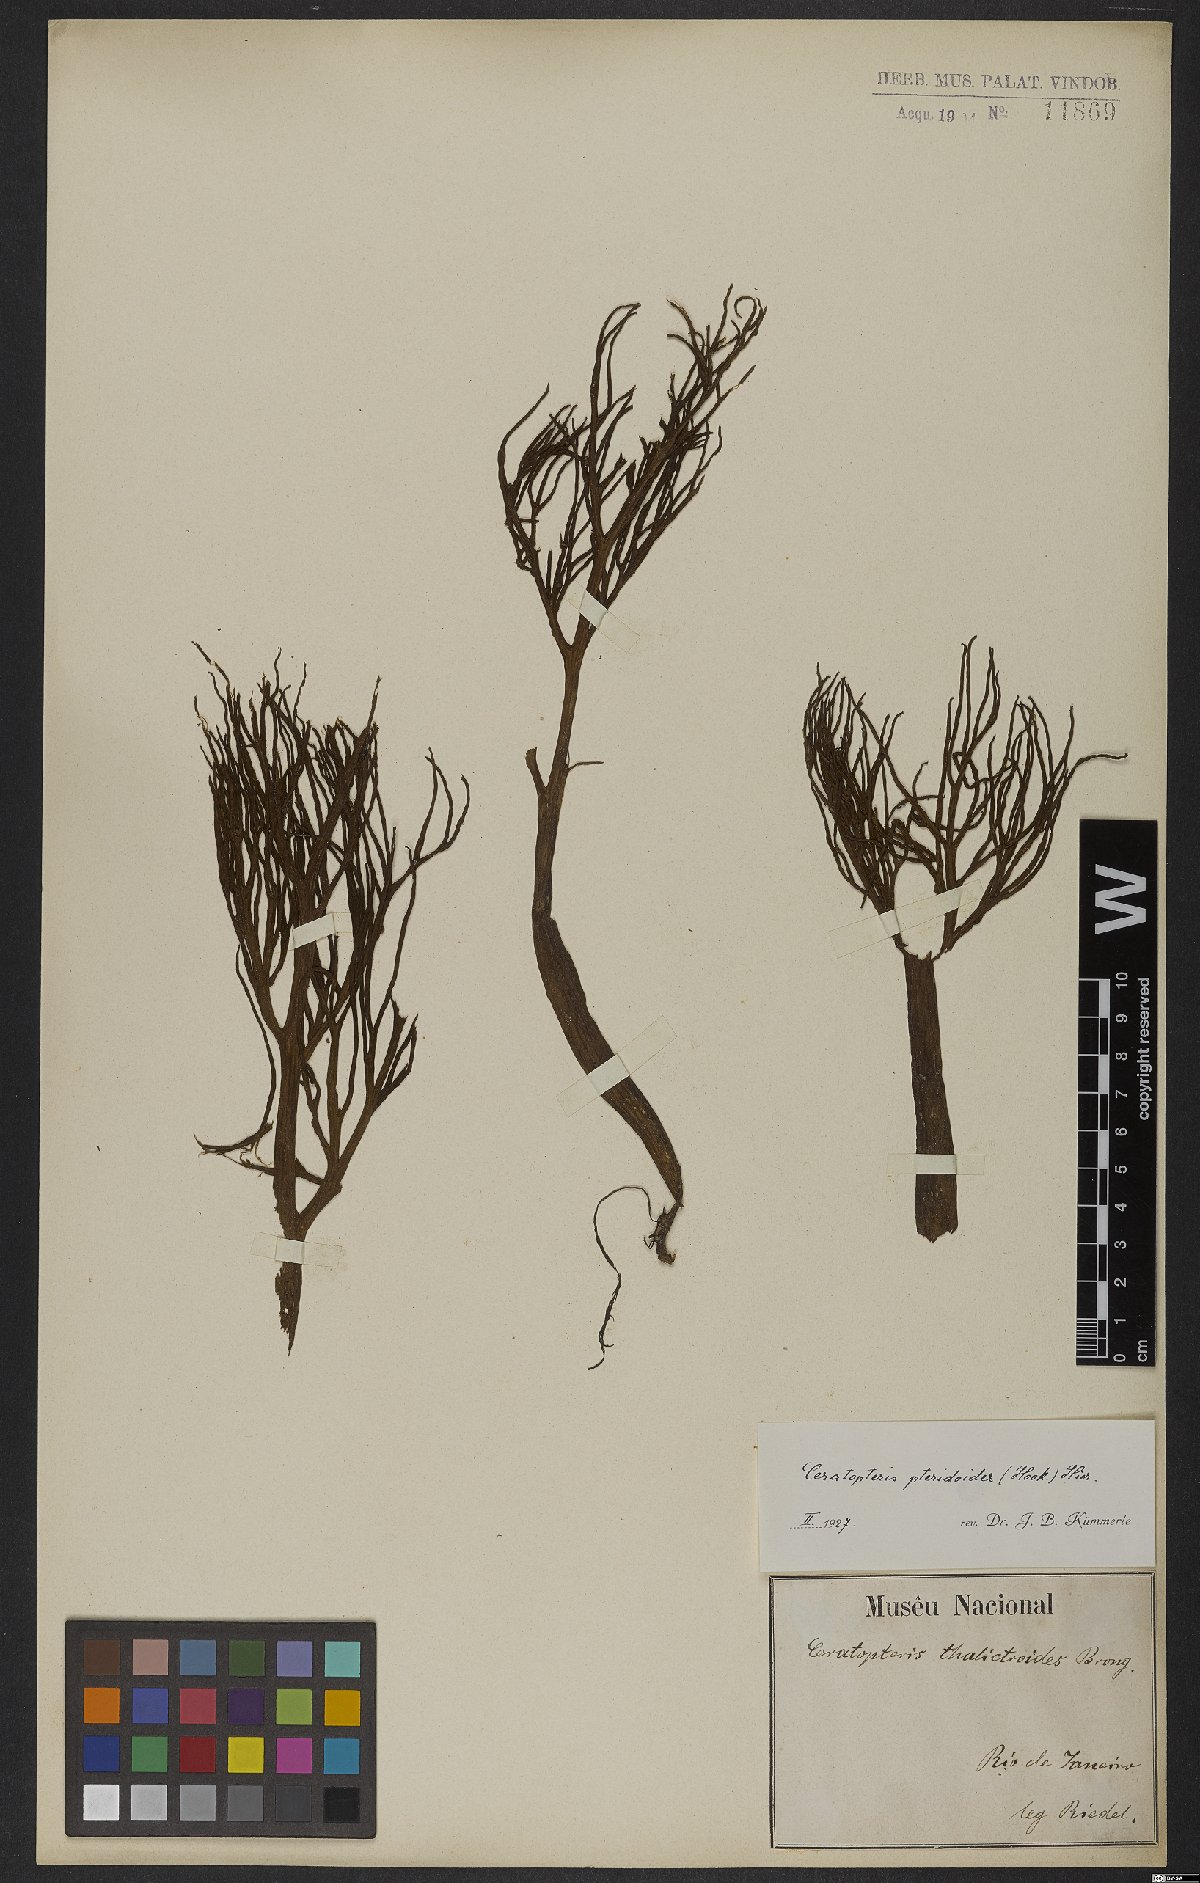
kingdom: Plantae
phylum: Tracheophyta
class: Polypodiopsida
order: Polypodiales
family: Pteridaceae
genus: Ceratopteris
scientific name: Ceratopteris pteridoides
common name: Floating fern
